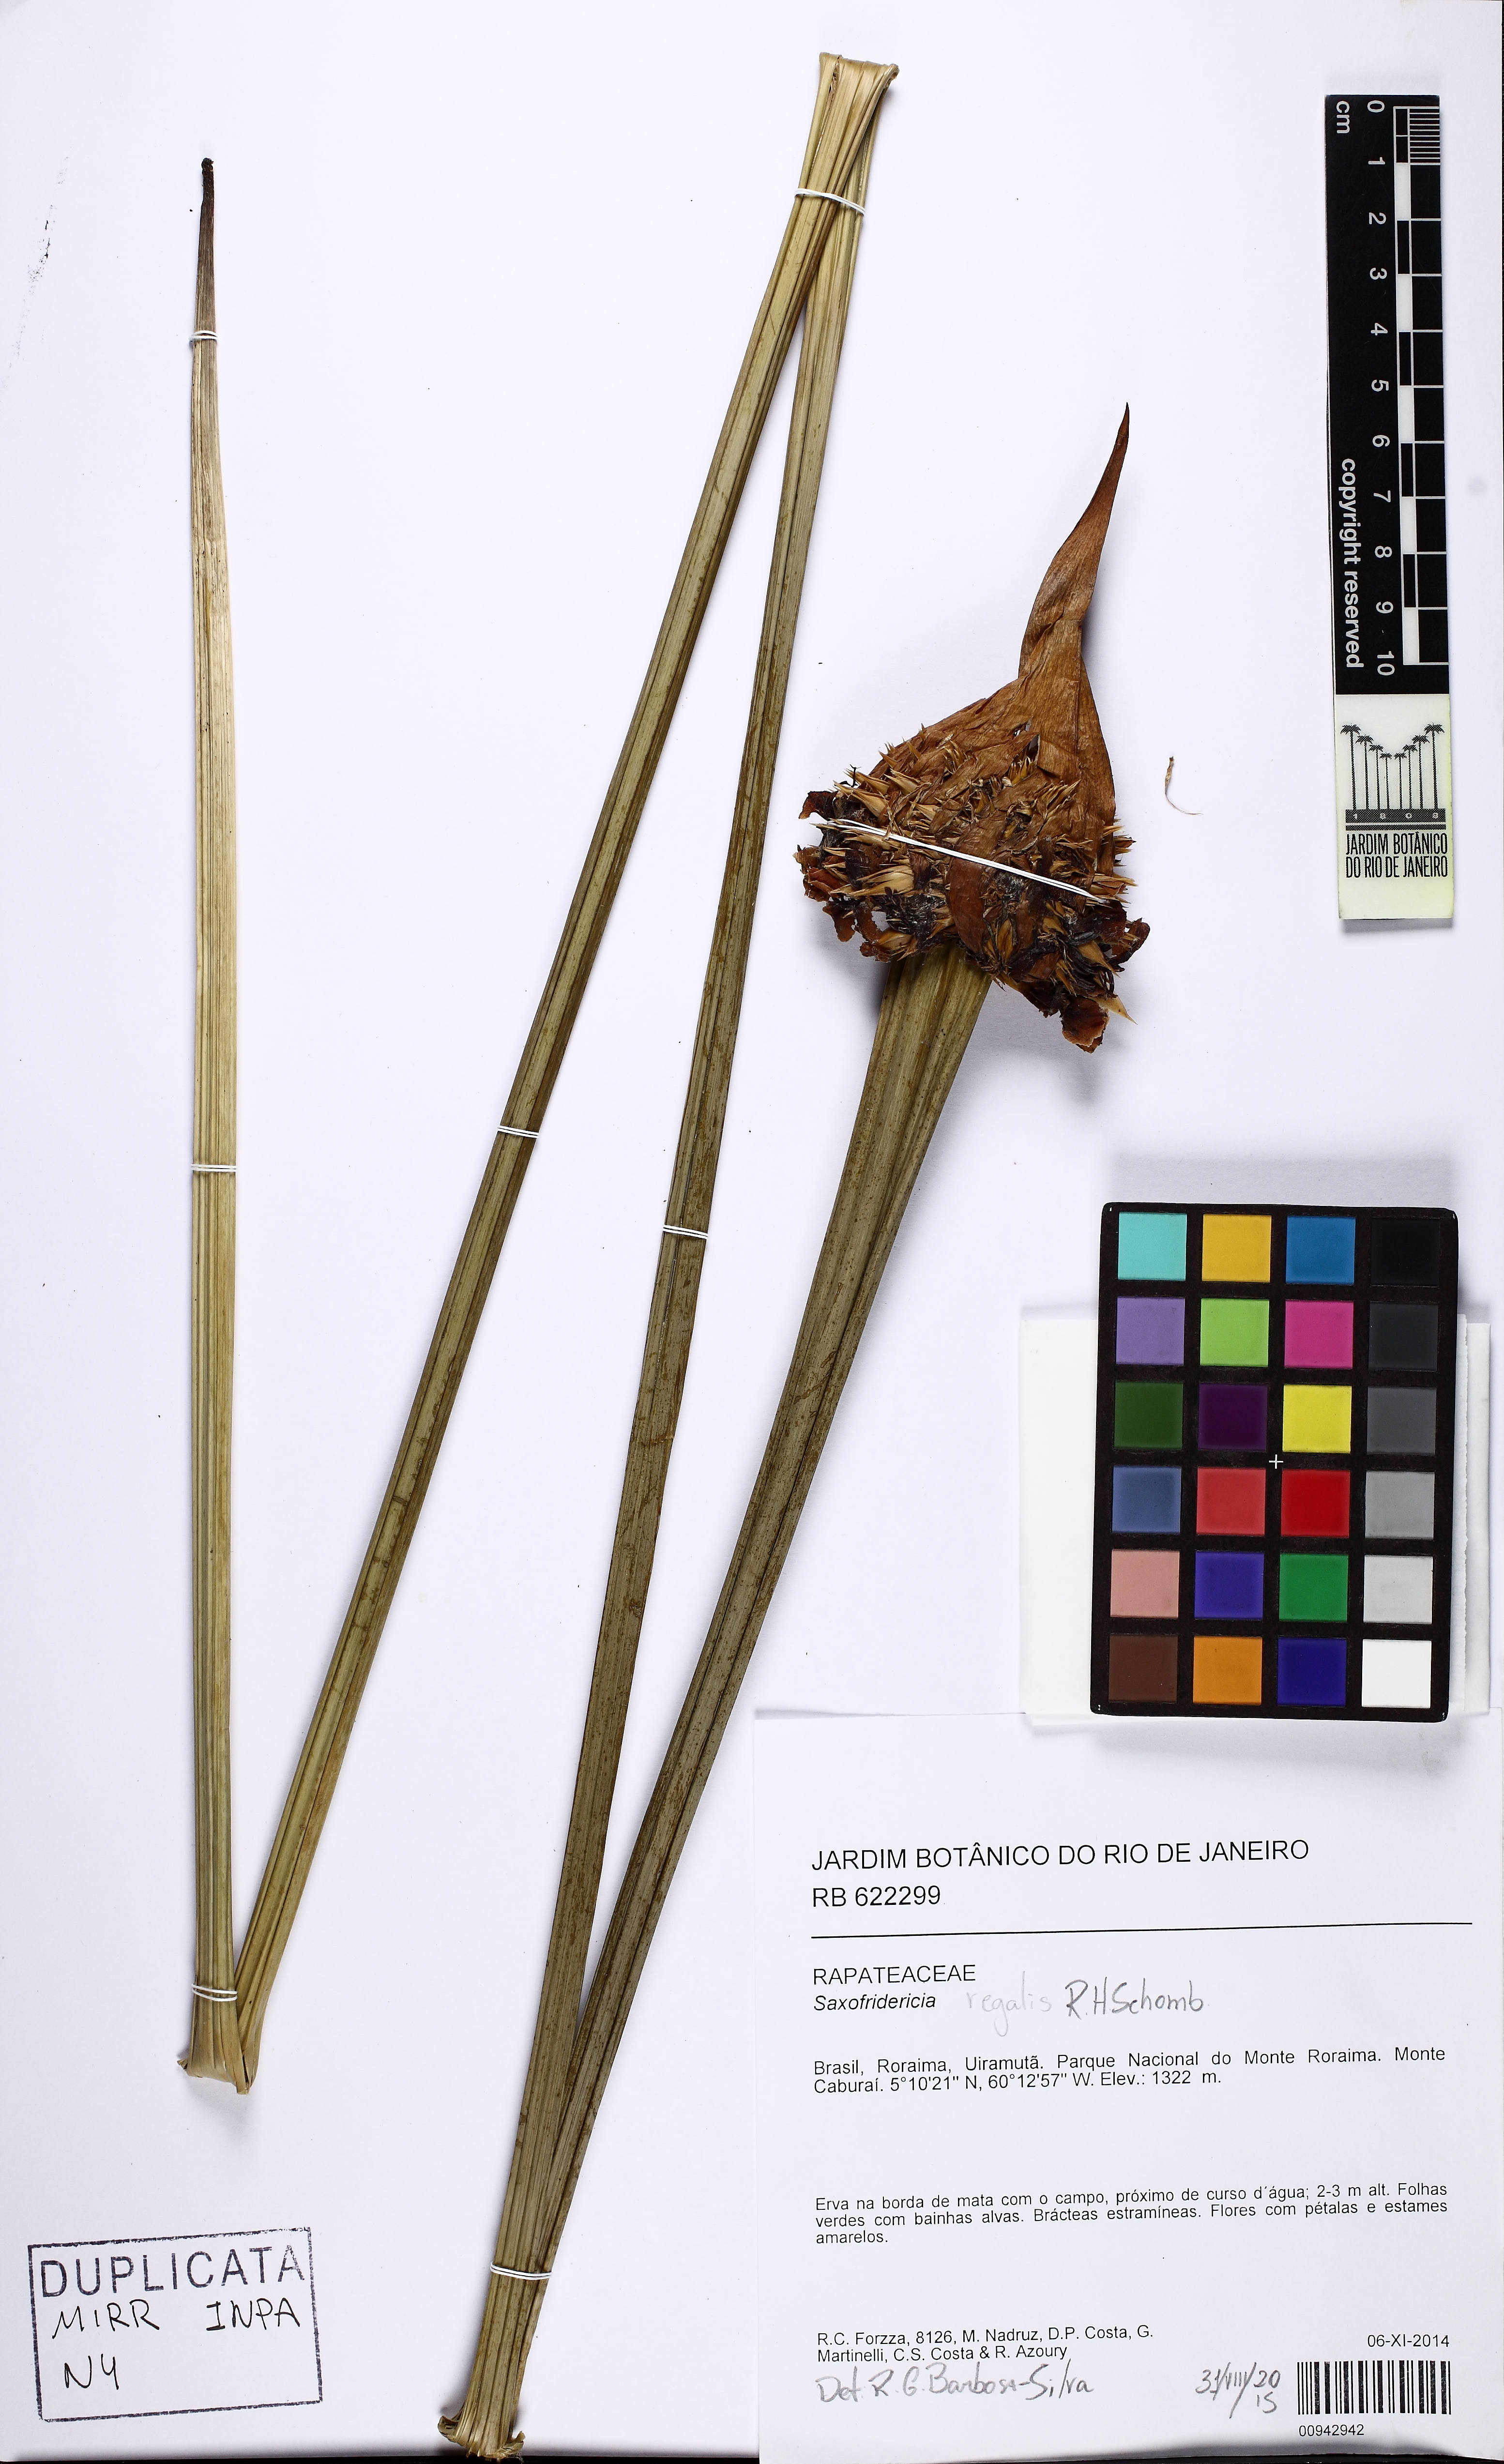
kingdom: Plantae
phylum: Tracheophyta
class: Liliopsida
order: Poales
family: Rapateaceae
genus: Saxofridericia
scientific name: Saxofridericia
